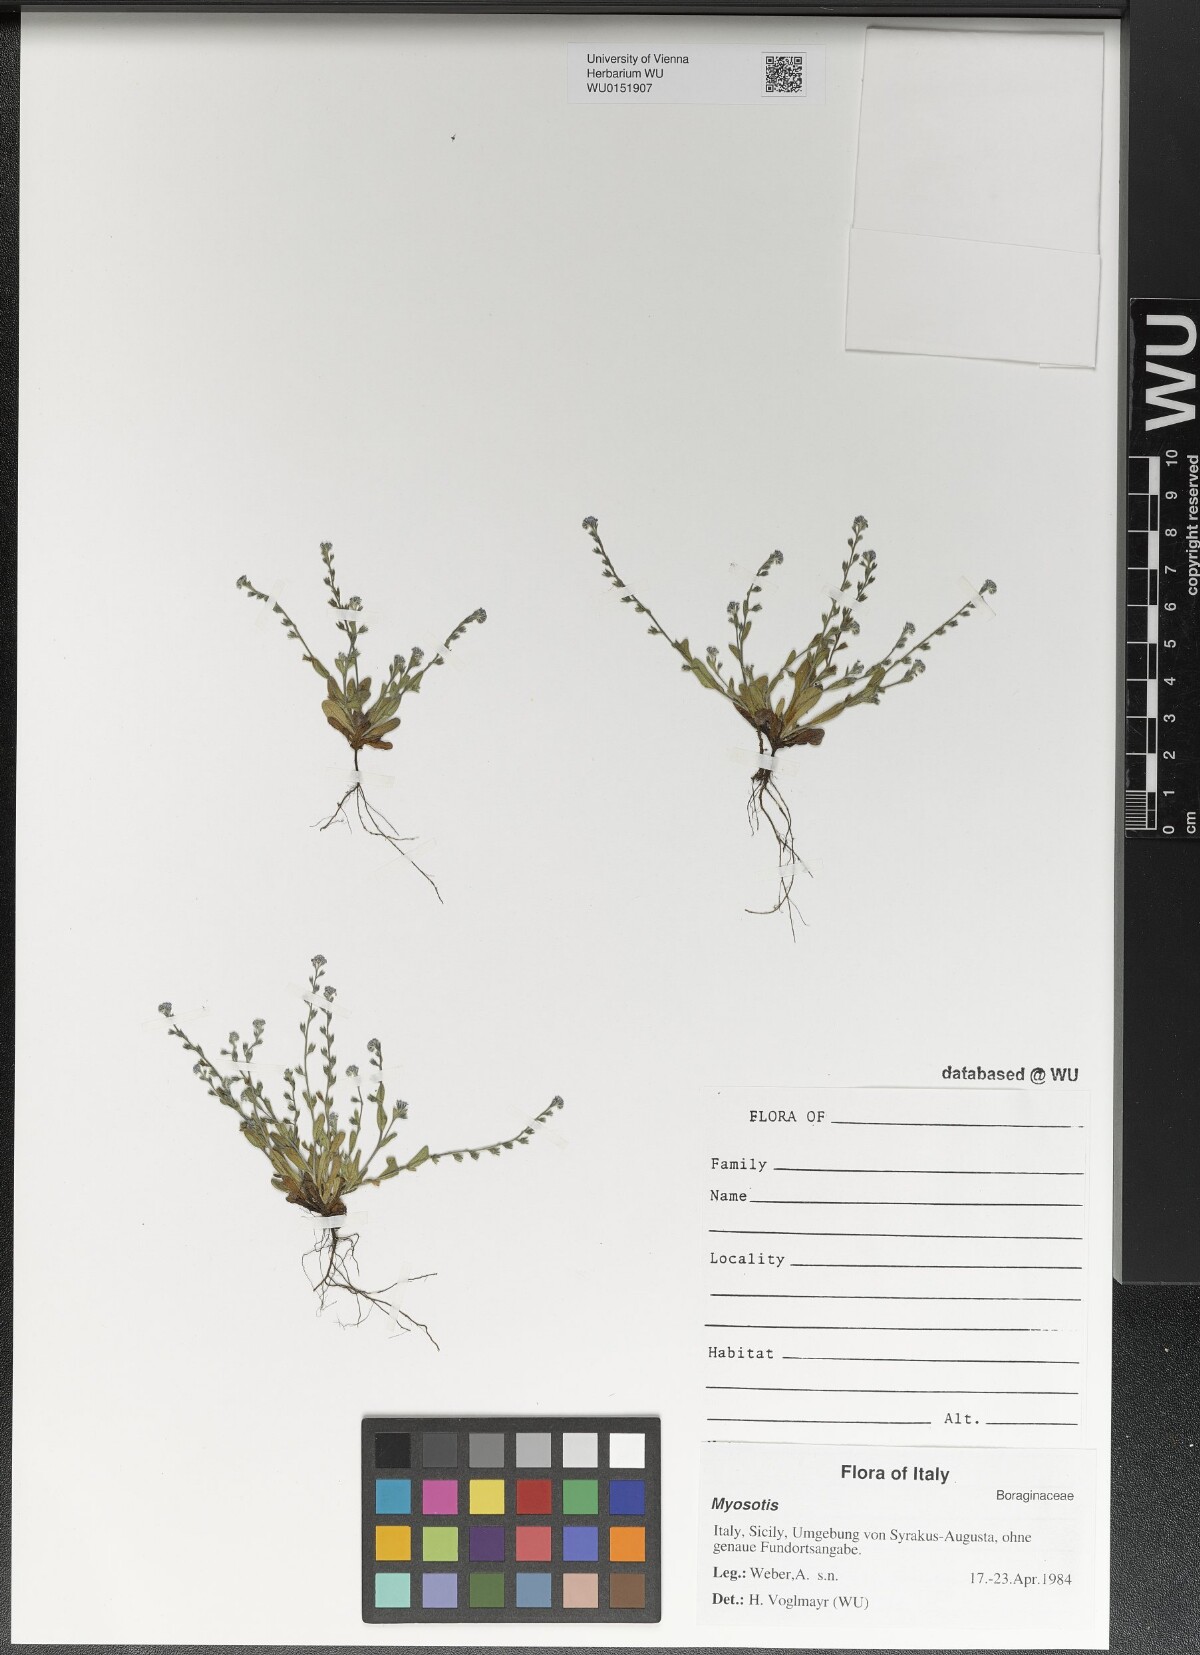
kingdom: Plantae
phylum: Tracheophyta
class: Magnoliopsida
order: Boraginales
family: Boraginaceae
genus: Myosotis
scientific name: Myosotis
